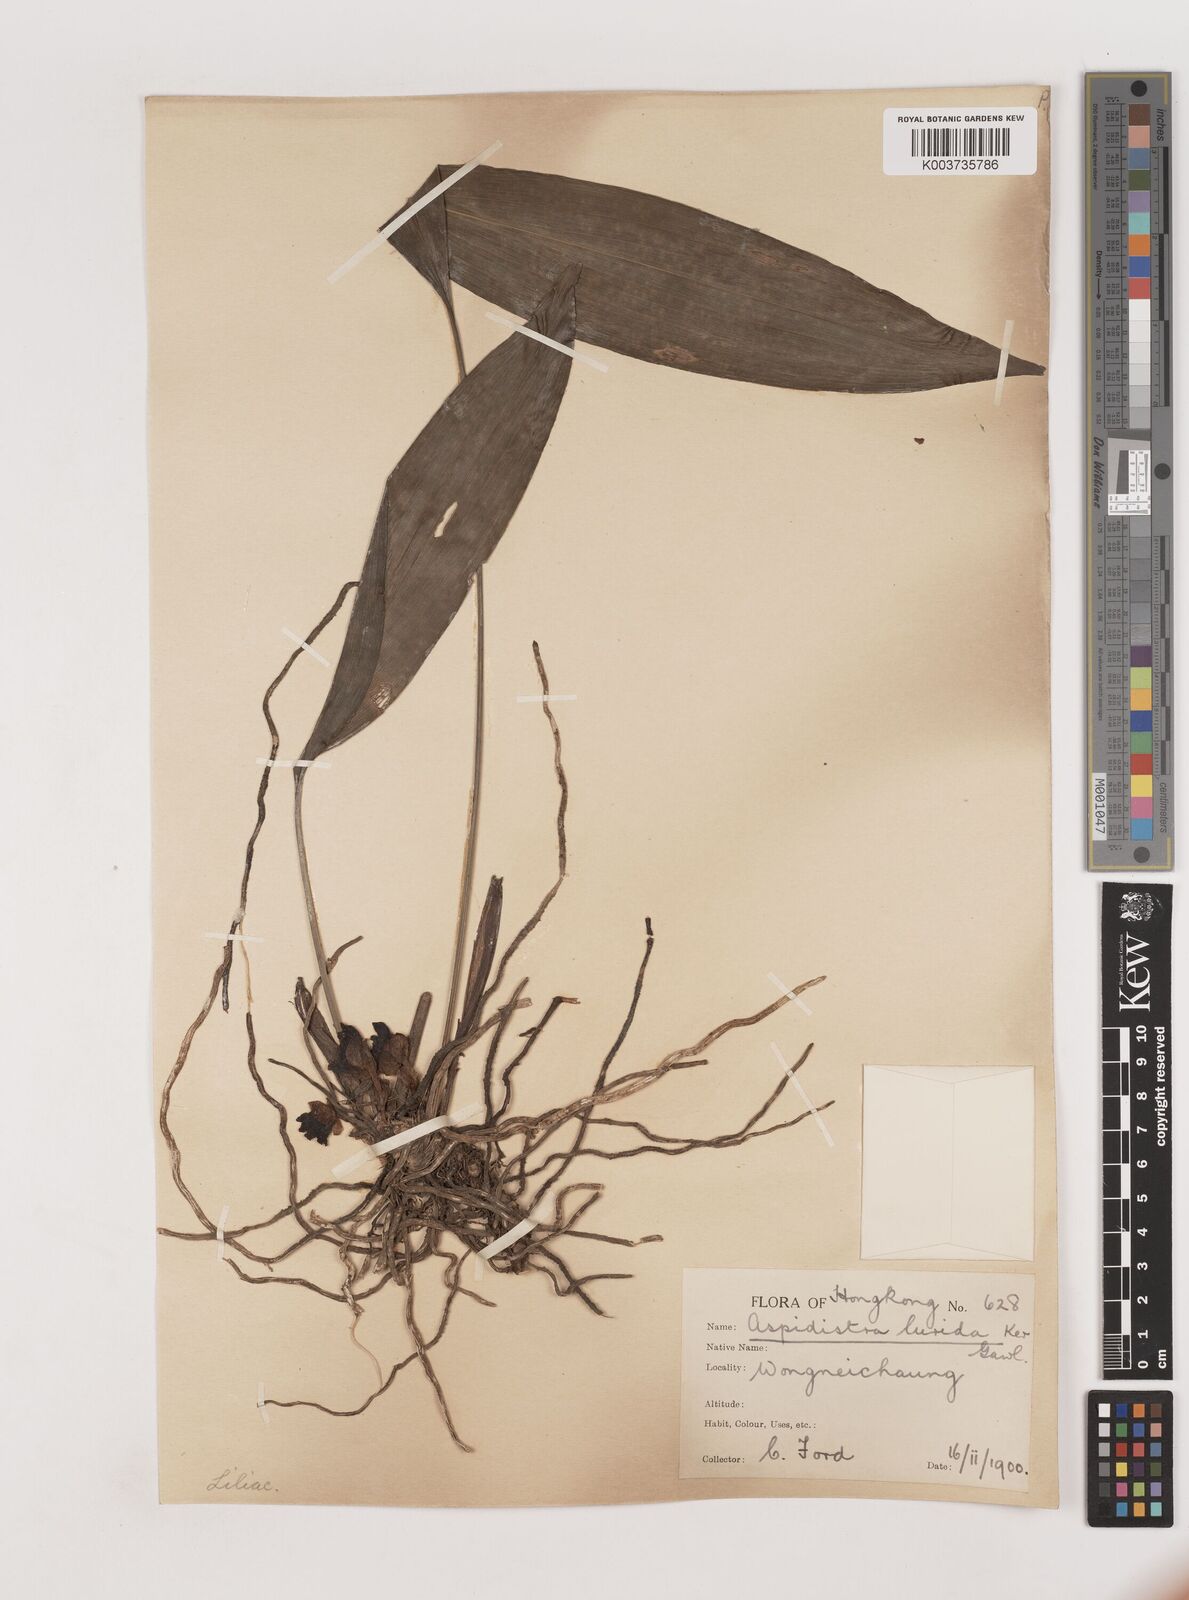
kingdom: Plantae
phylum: Tracheophyta
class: Liliopsida
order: Asparagales
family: Asparagaceae
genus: Aspidistra
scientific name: Aspidistra lurida
